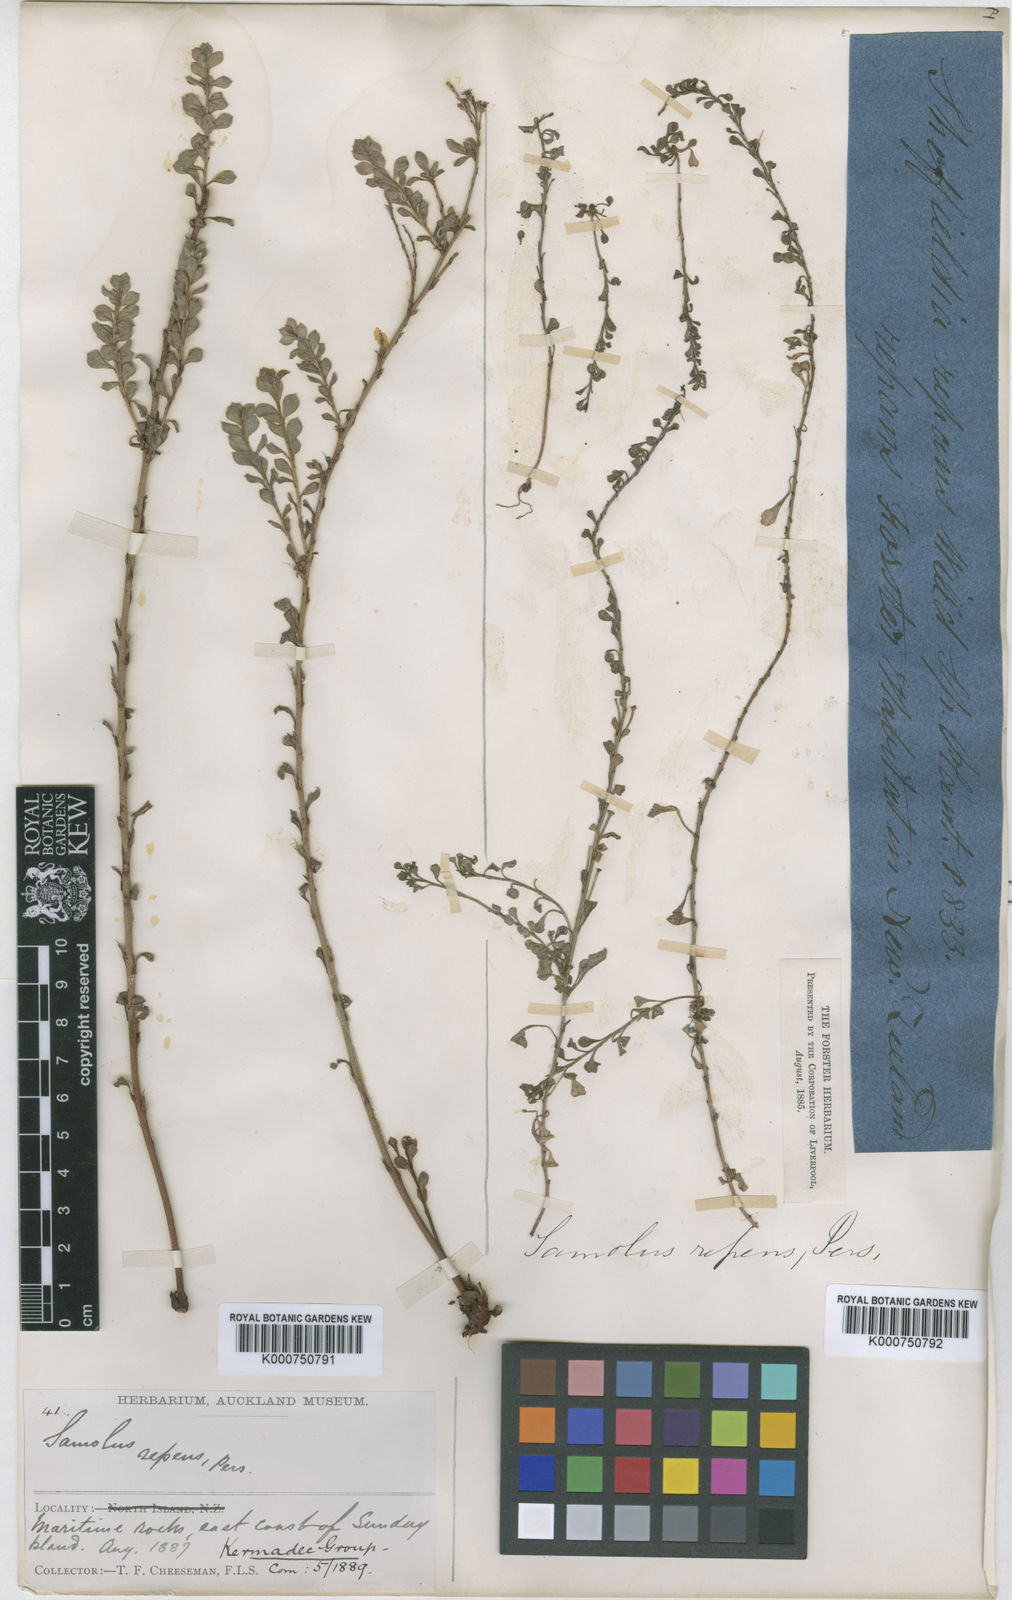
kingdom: Plantae
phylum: Tracheophyta
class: Magnoliopsida
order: Ericales
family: Primulaceae
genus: Samolus
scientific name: Samolus repens
